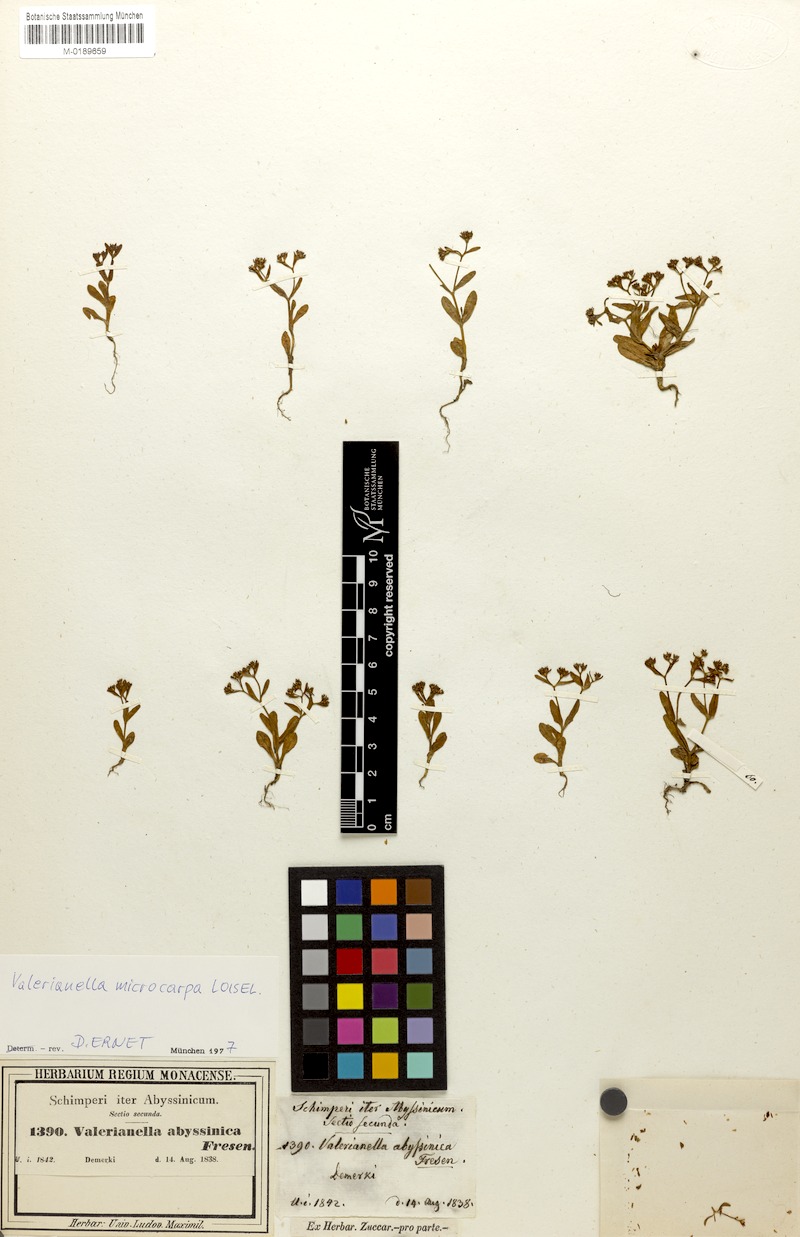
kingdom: Plantae
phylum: Tracheophyta
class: Magnoliopsida
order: Dipsacales
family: Caprifoliaceae
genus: Valerianella
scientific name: Valerianella microcarpa
